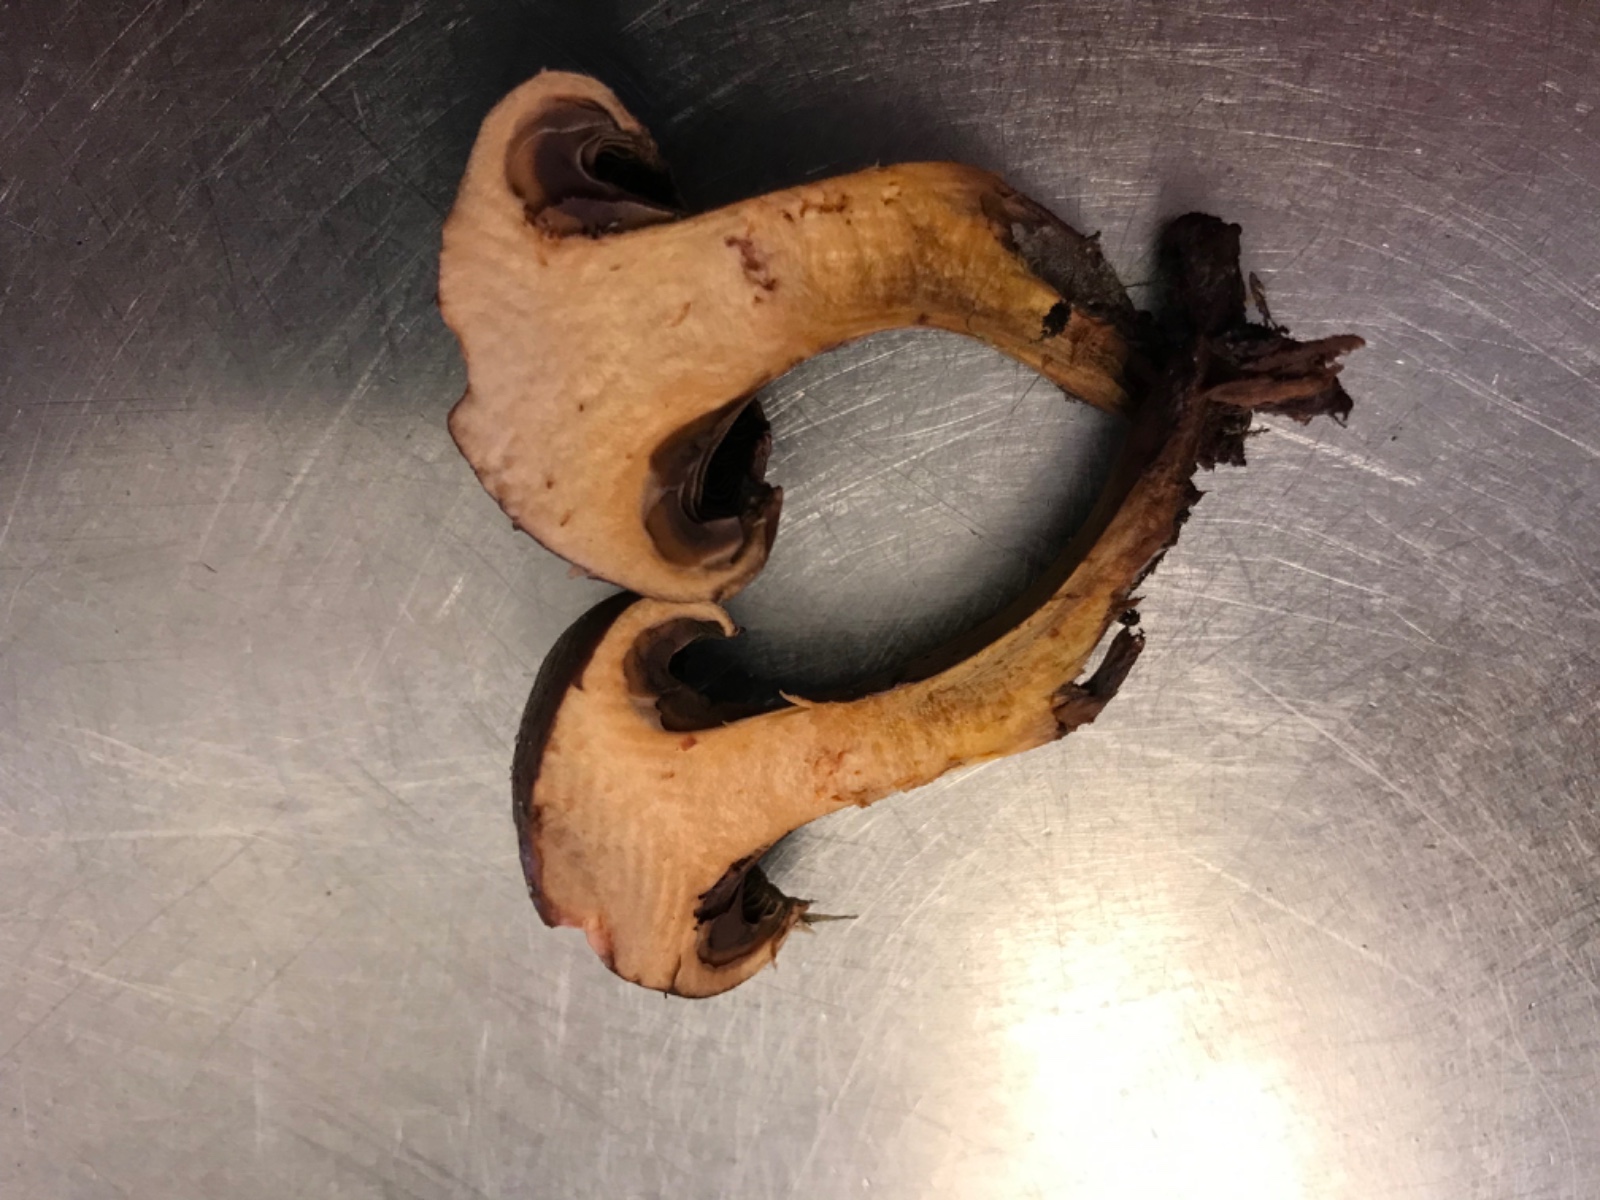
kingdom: Fungi
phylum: Basidiomycota
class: Agaricomycetes
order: Boletales
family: Gomphidiaceae
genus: Chroogomphus
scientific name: Chroogomphus rutilus
